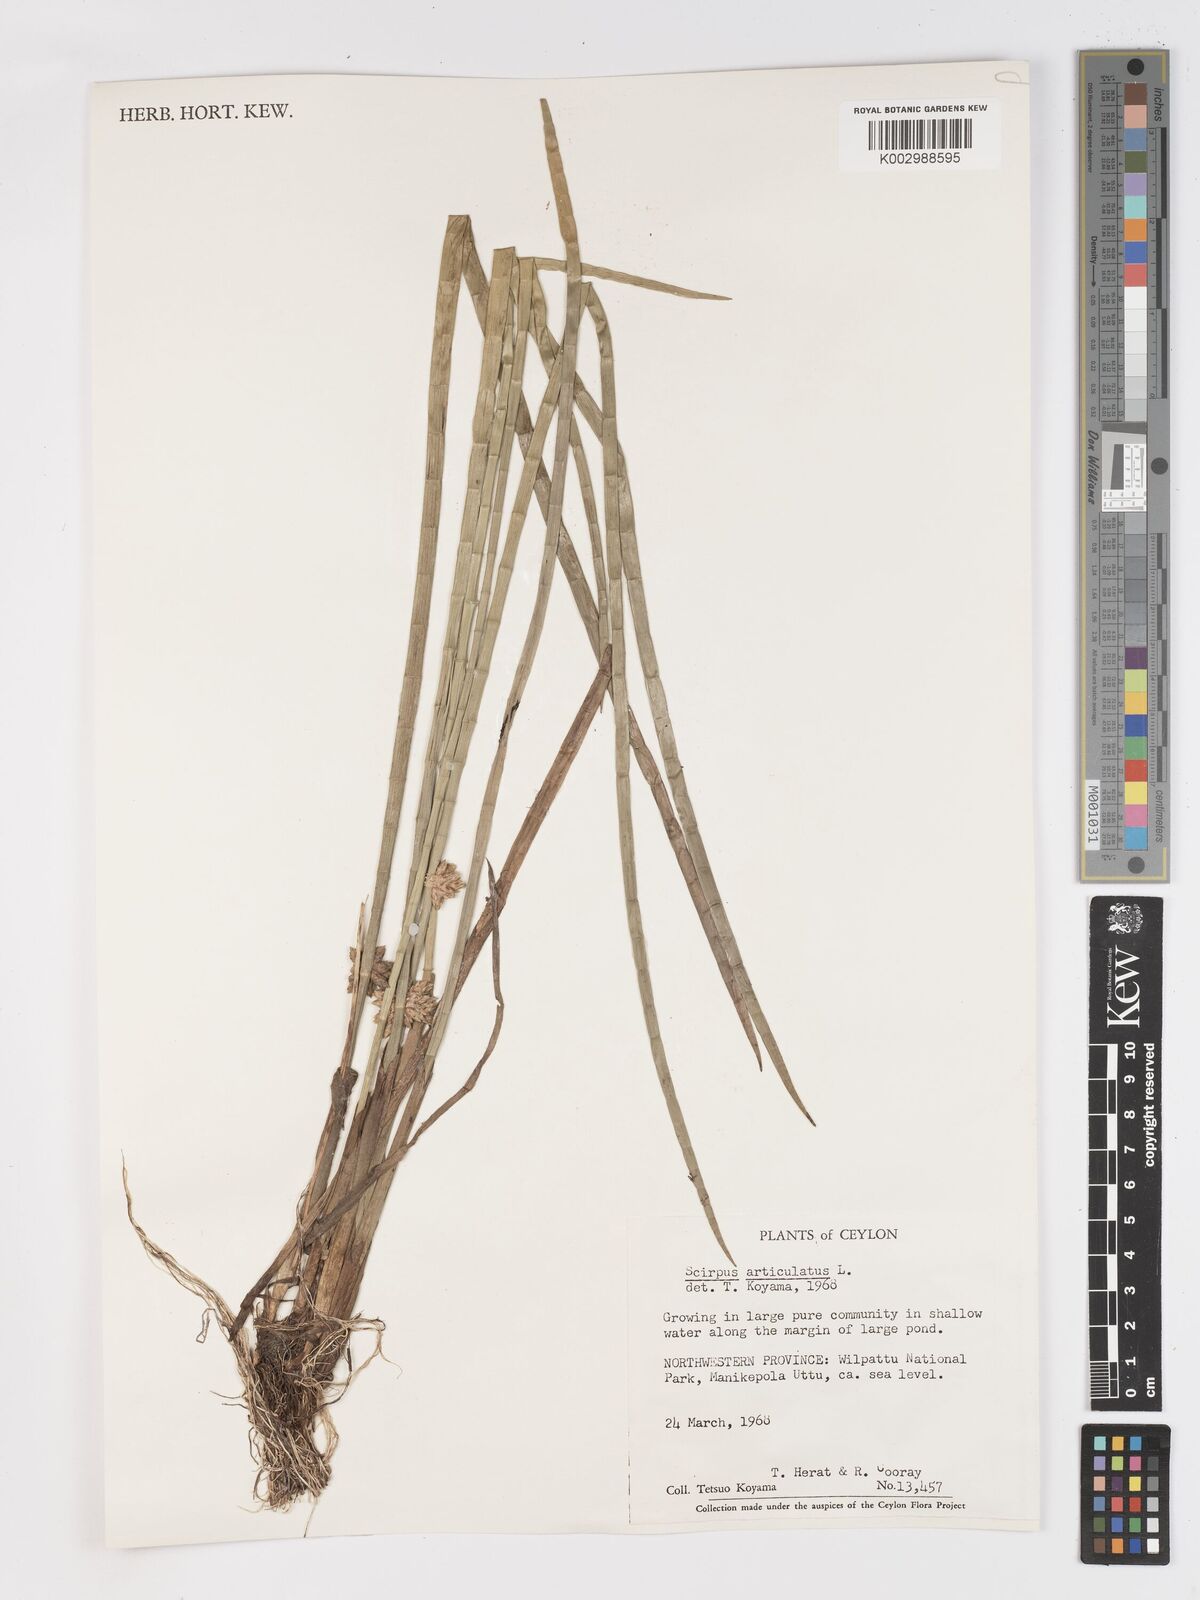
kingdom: Plantae
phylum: Tracheophyta
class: Liliopsida
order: Poales
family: Cyperaceae
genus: Schoenoplectiella
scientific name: Schoenoplectiella articulata
